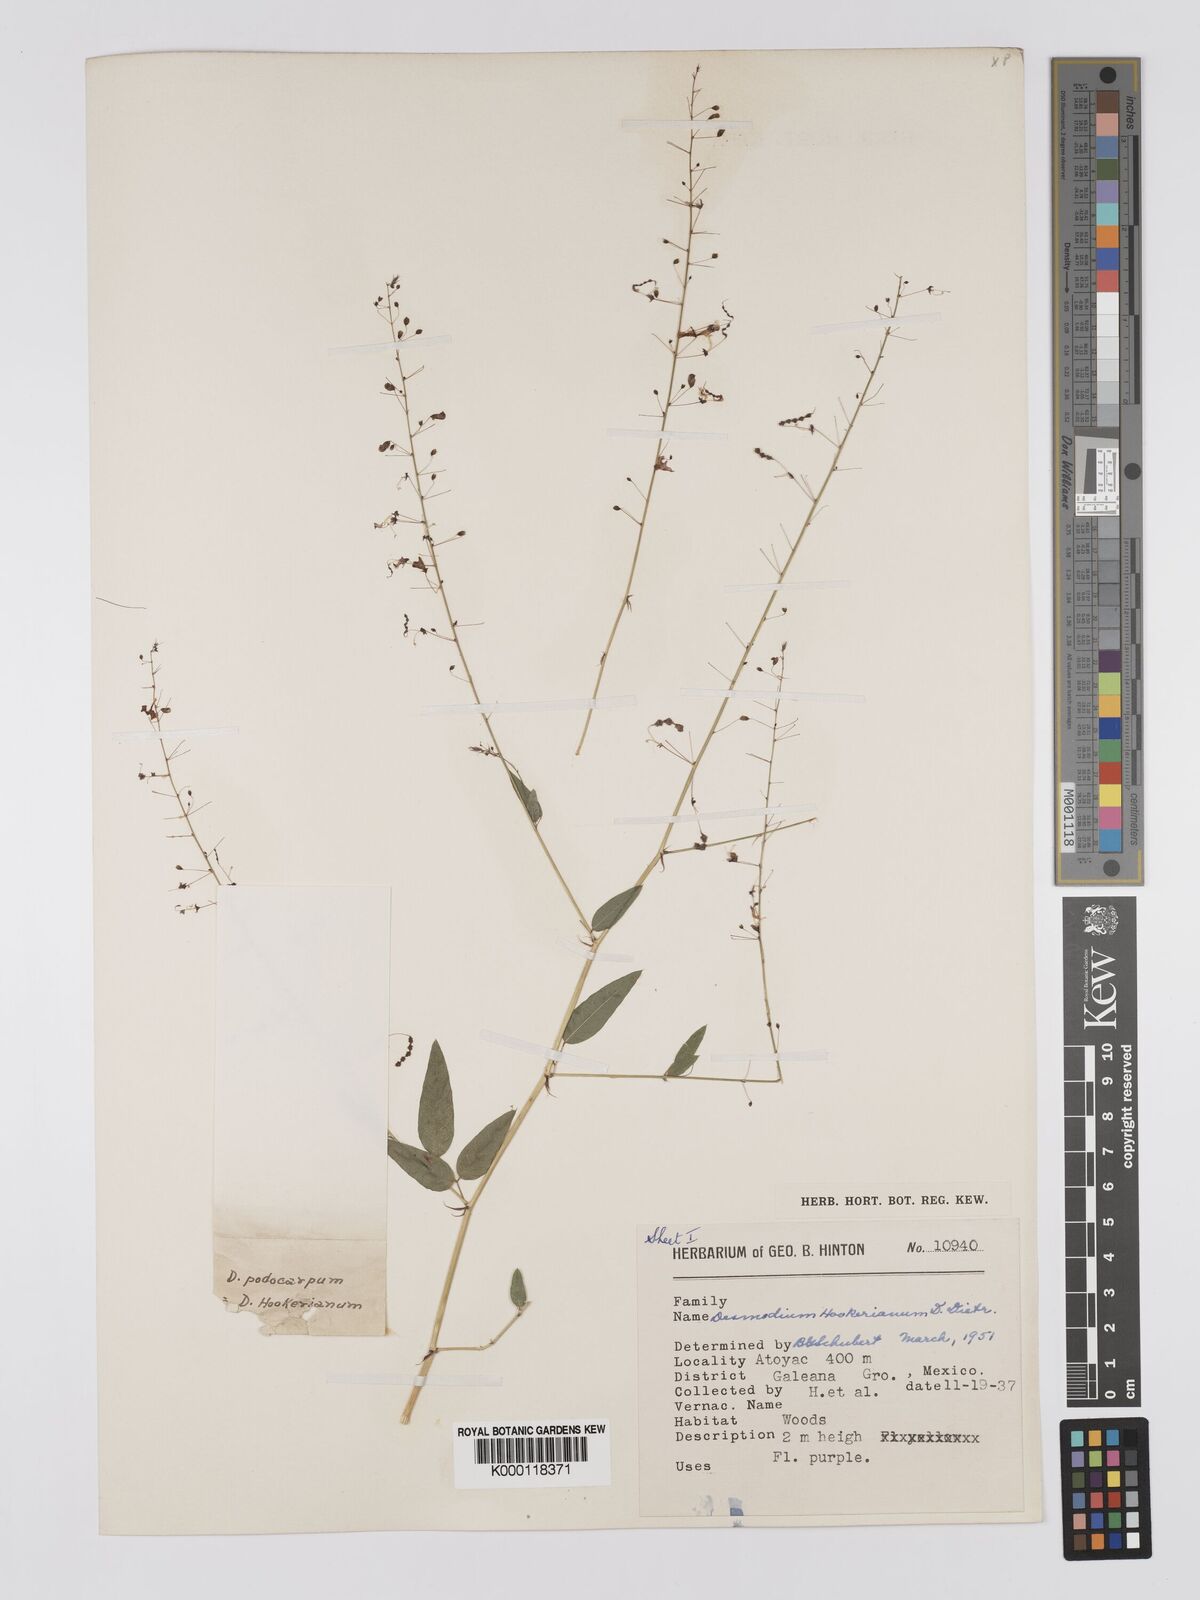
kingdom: Plantae
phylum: Tracheophyta
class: Magnoliopsida
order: Fabales
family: Fabaceae
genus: Desmodium
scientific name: Desmodium hookerianum
